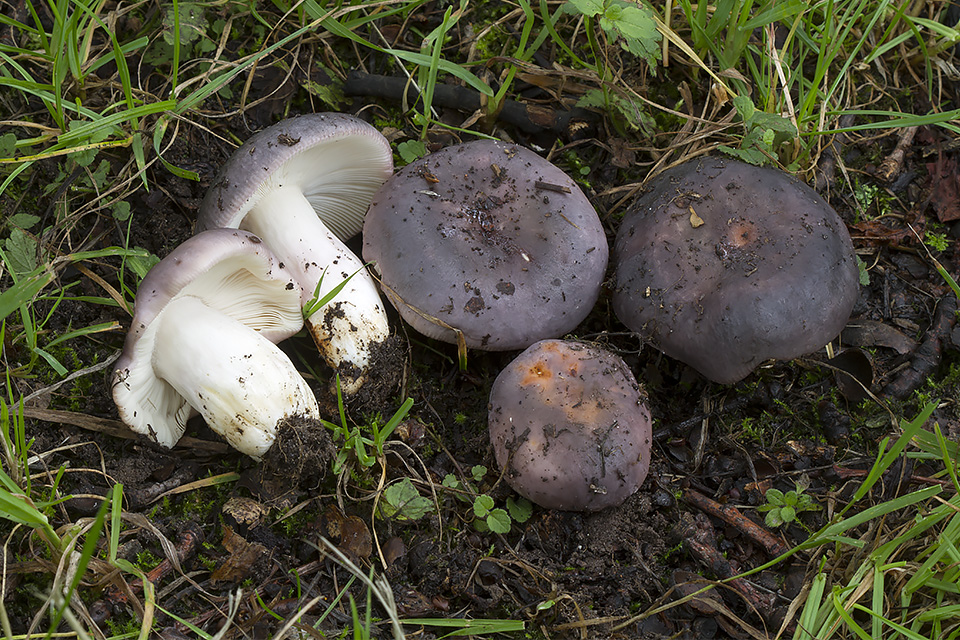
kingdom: Fungi
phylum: Basidiomycota
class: Agaricomycetes
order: Russulales
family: Russulaceae
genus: Russula
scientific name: Russula grisea
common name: grålig skørhat
